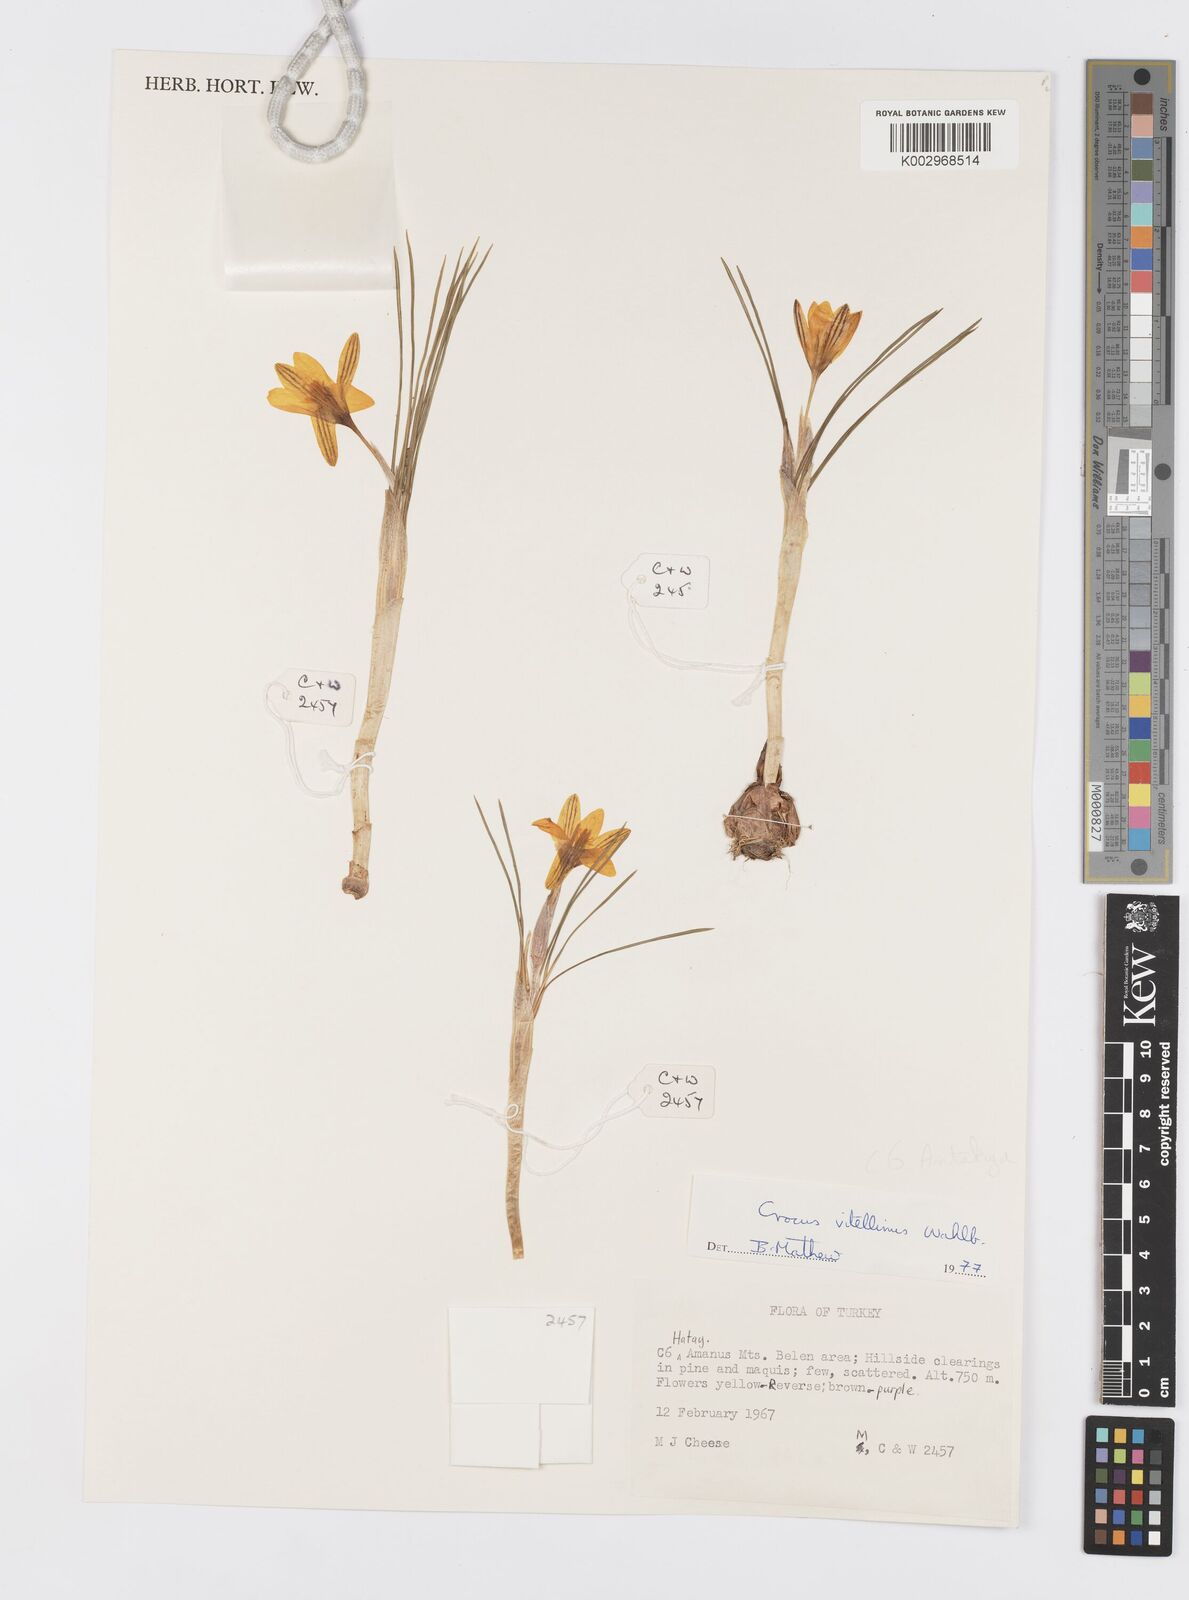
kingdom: Plantae
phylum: Tracheophyta
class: Liliopsida
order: Asparagales
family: Iridaceae
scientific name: Iridaceae
